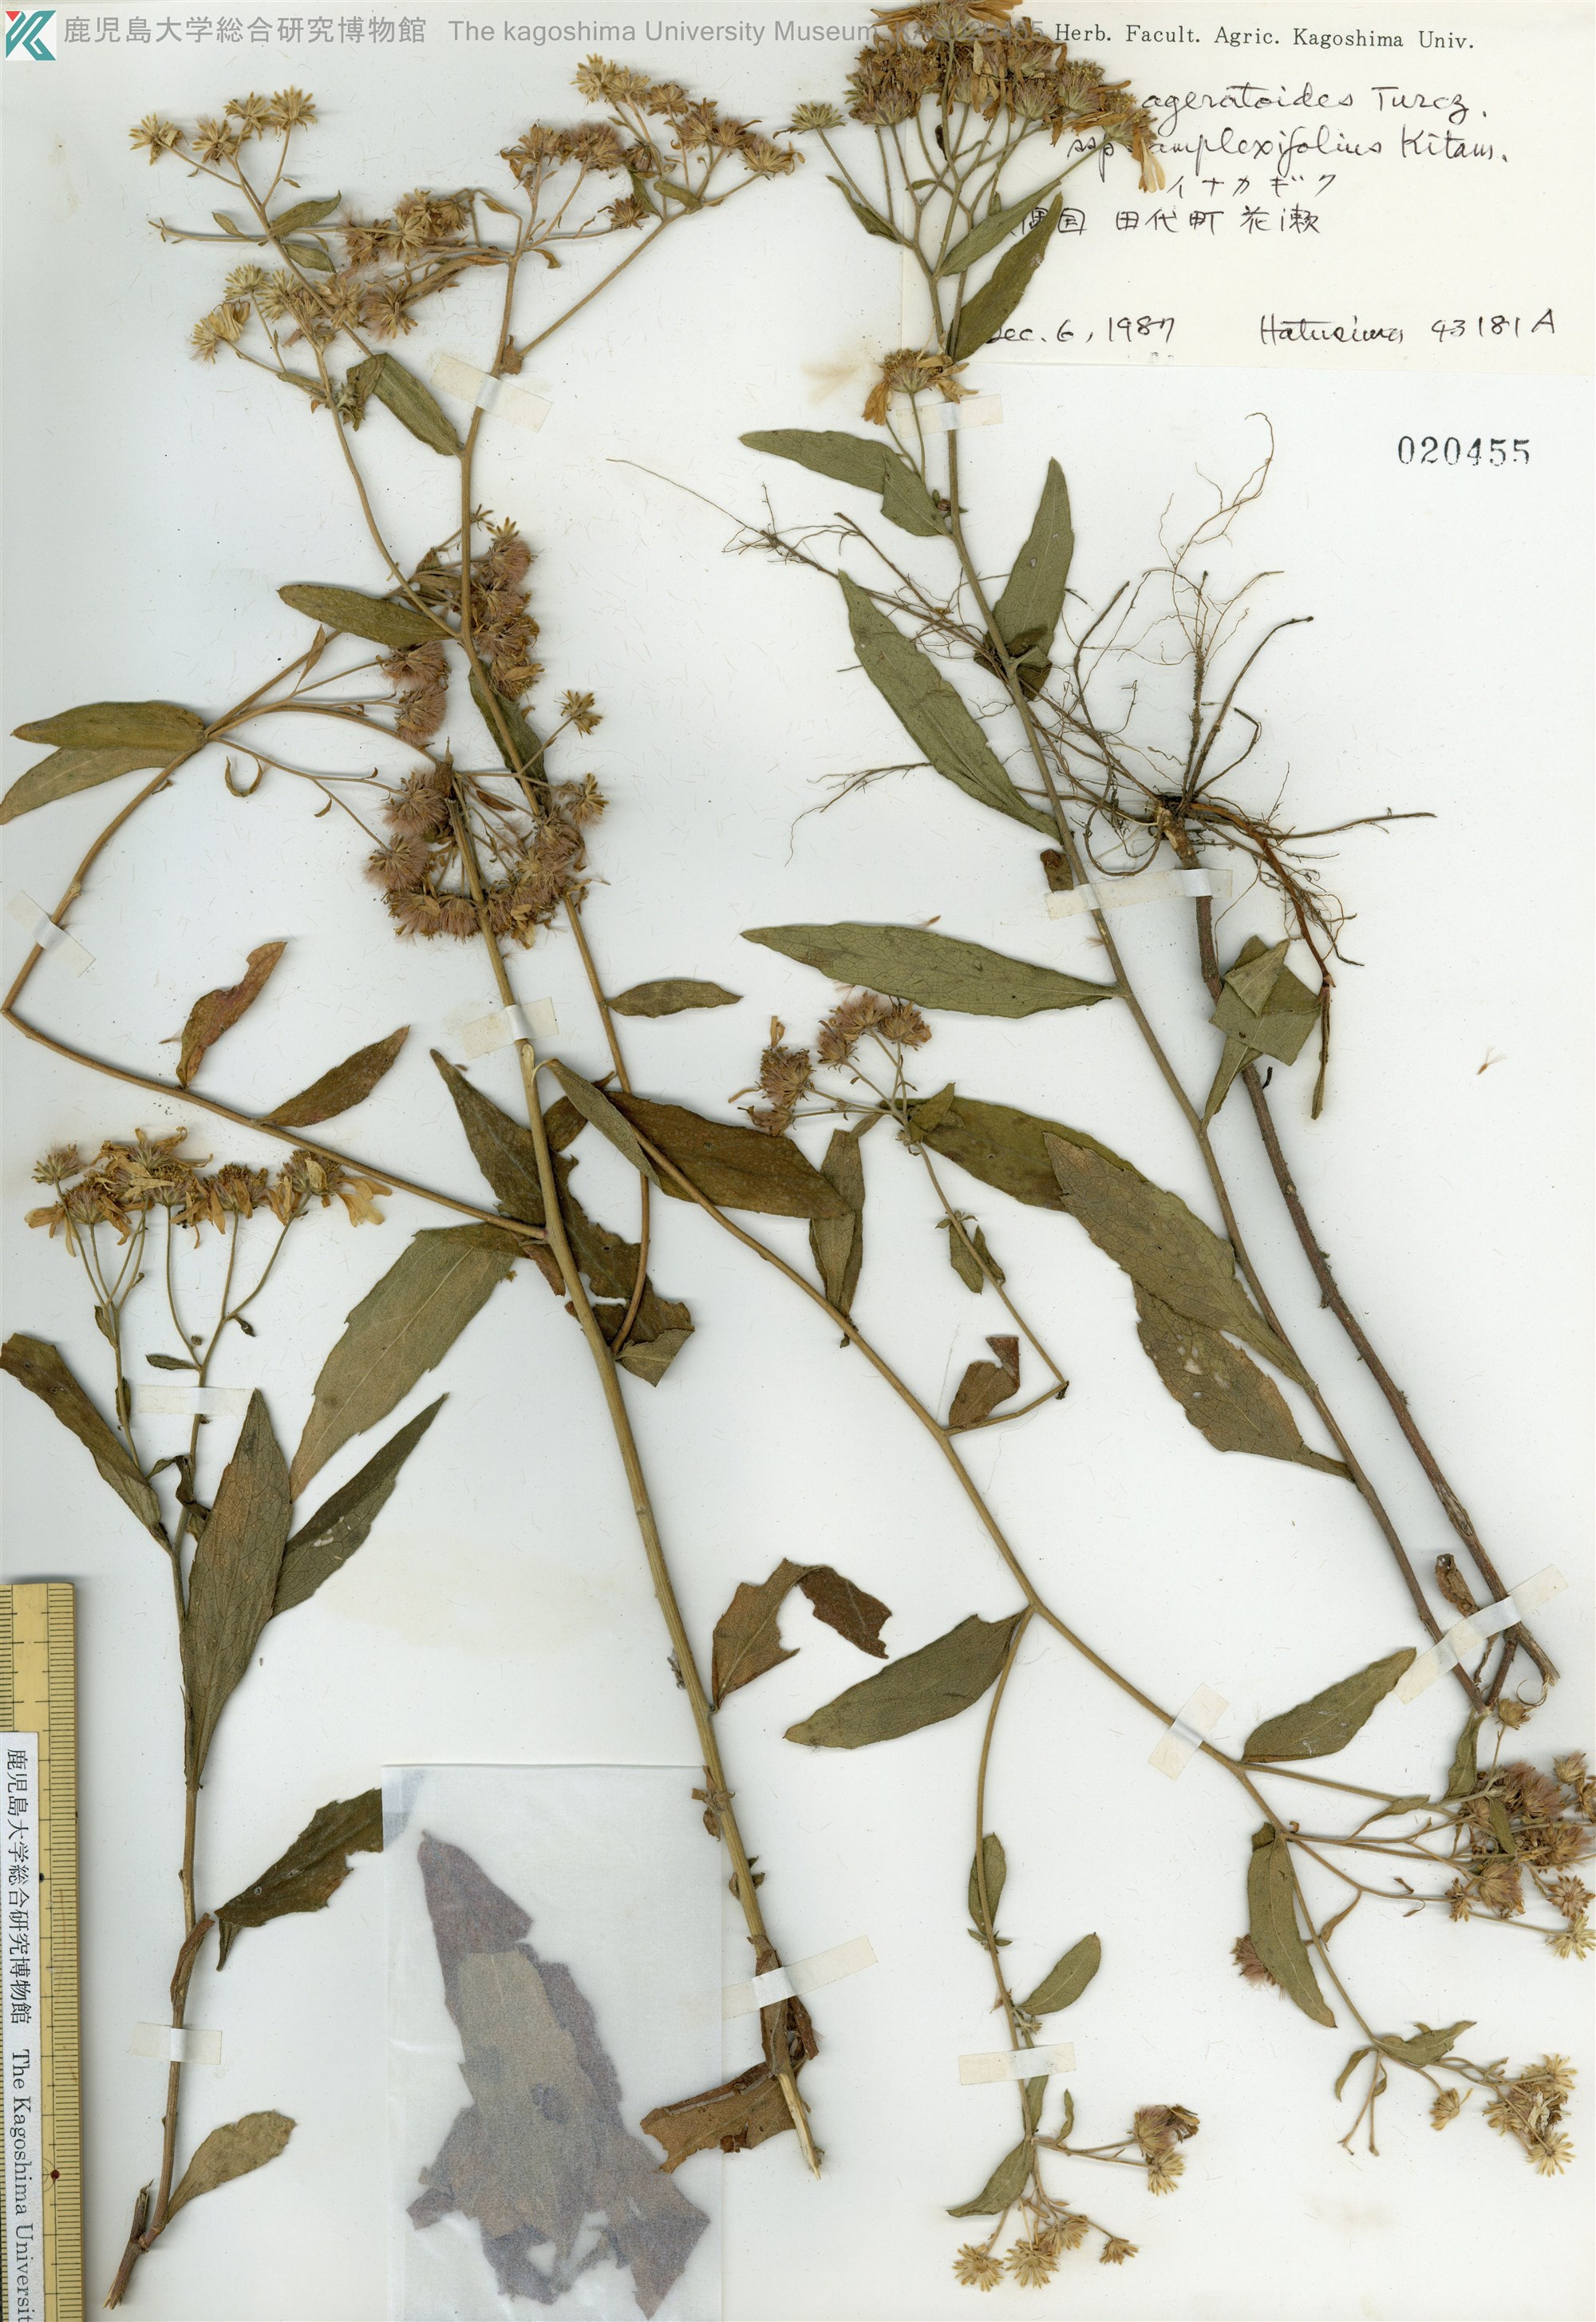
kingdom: Plantae
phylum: Tracheophyta
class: Magnoliopsida
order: Asterales
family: Asteraceae
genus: Aster
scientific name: Aster satsumensis
